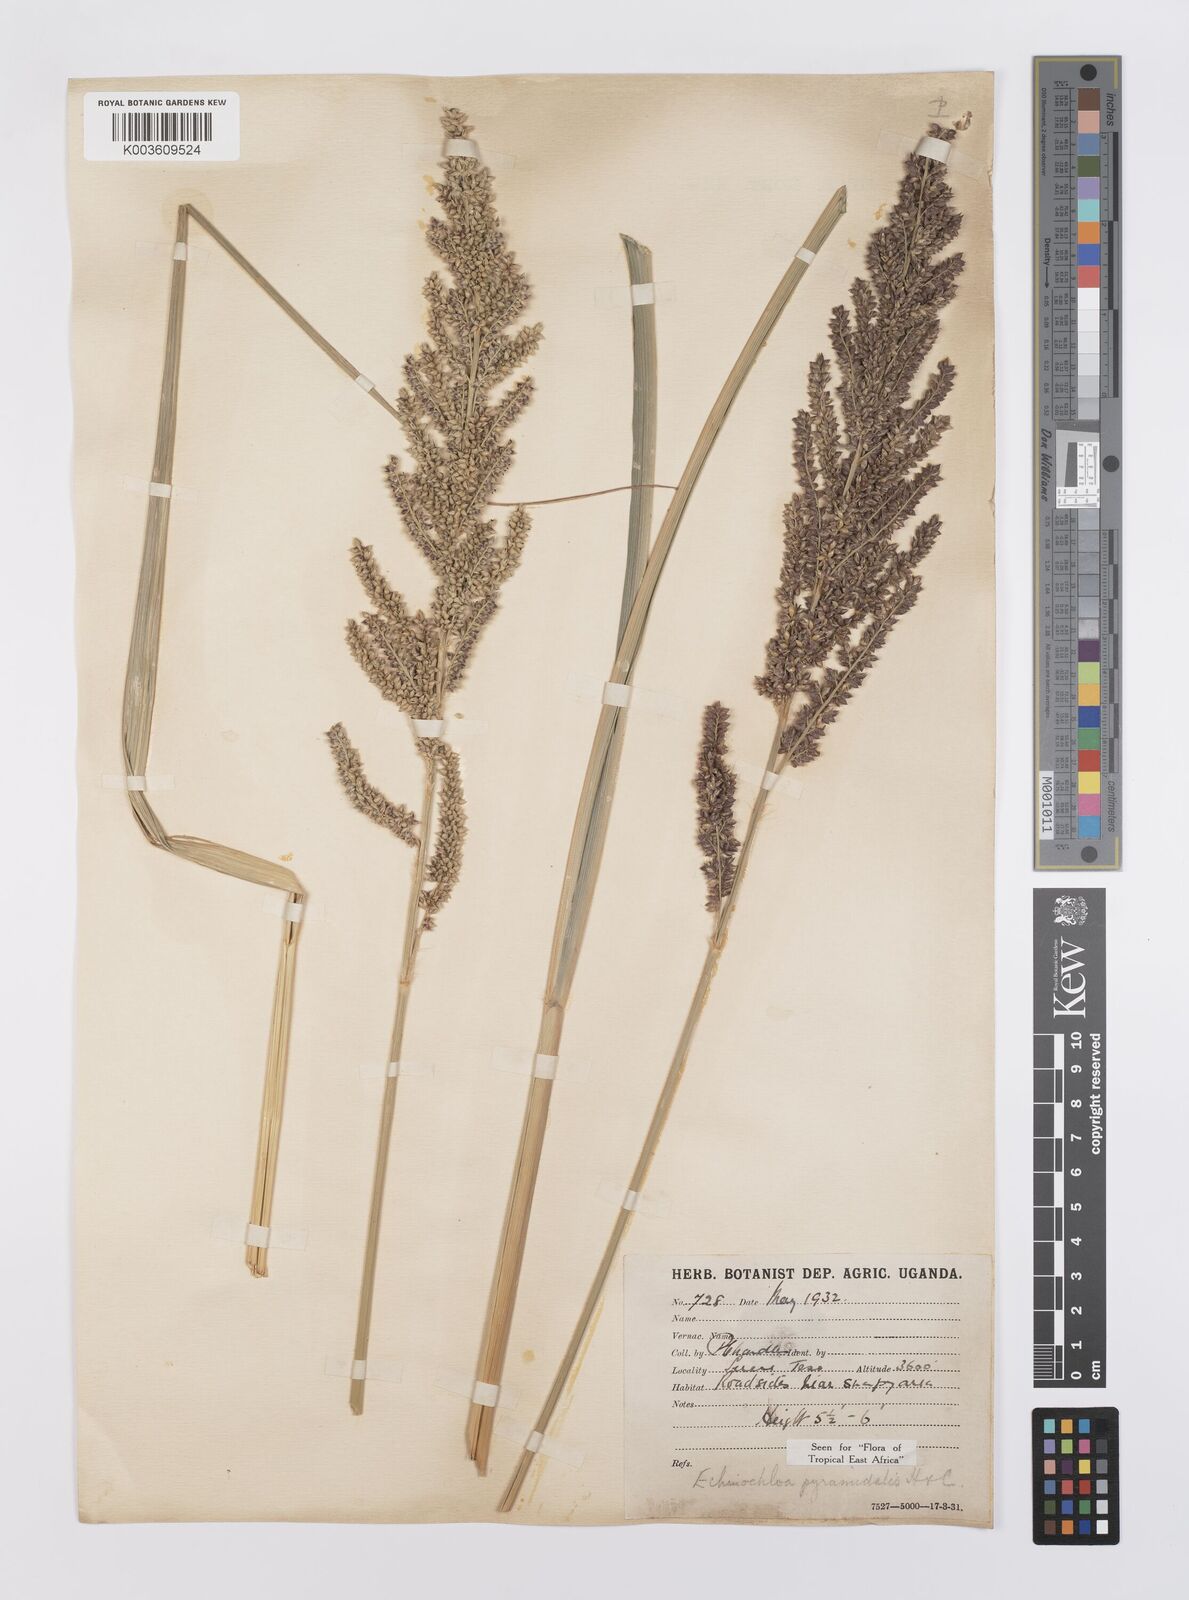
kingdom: Plantae
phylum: Tracheophyta
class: Liliopsida
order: Poales
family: Poaceae
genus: Echinochloa
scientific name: Echinochloa pyramidalis
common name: Antelope grass
